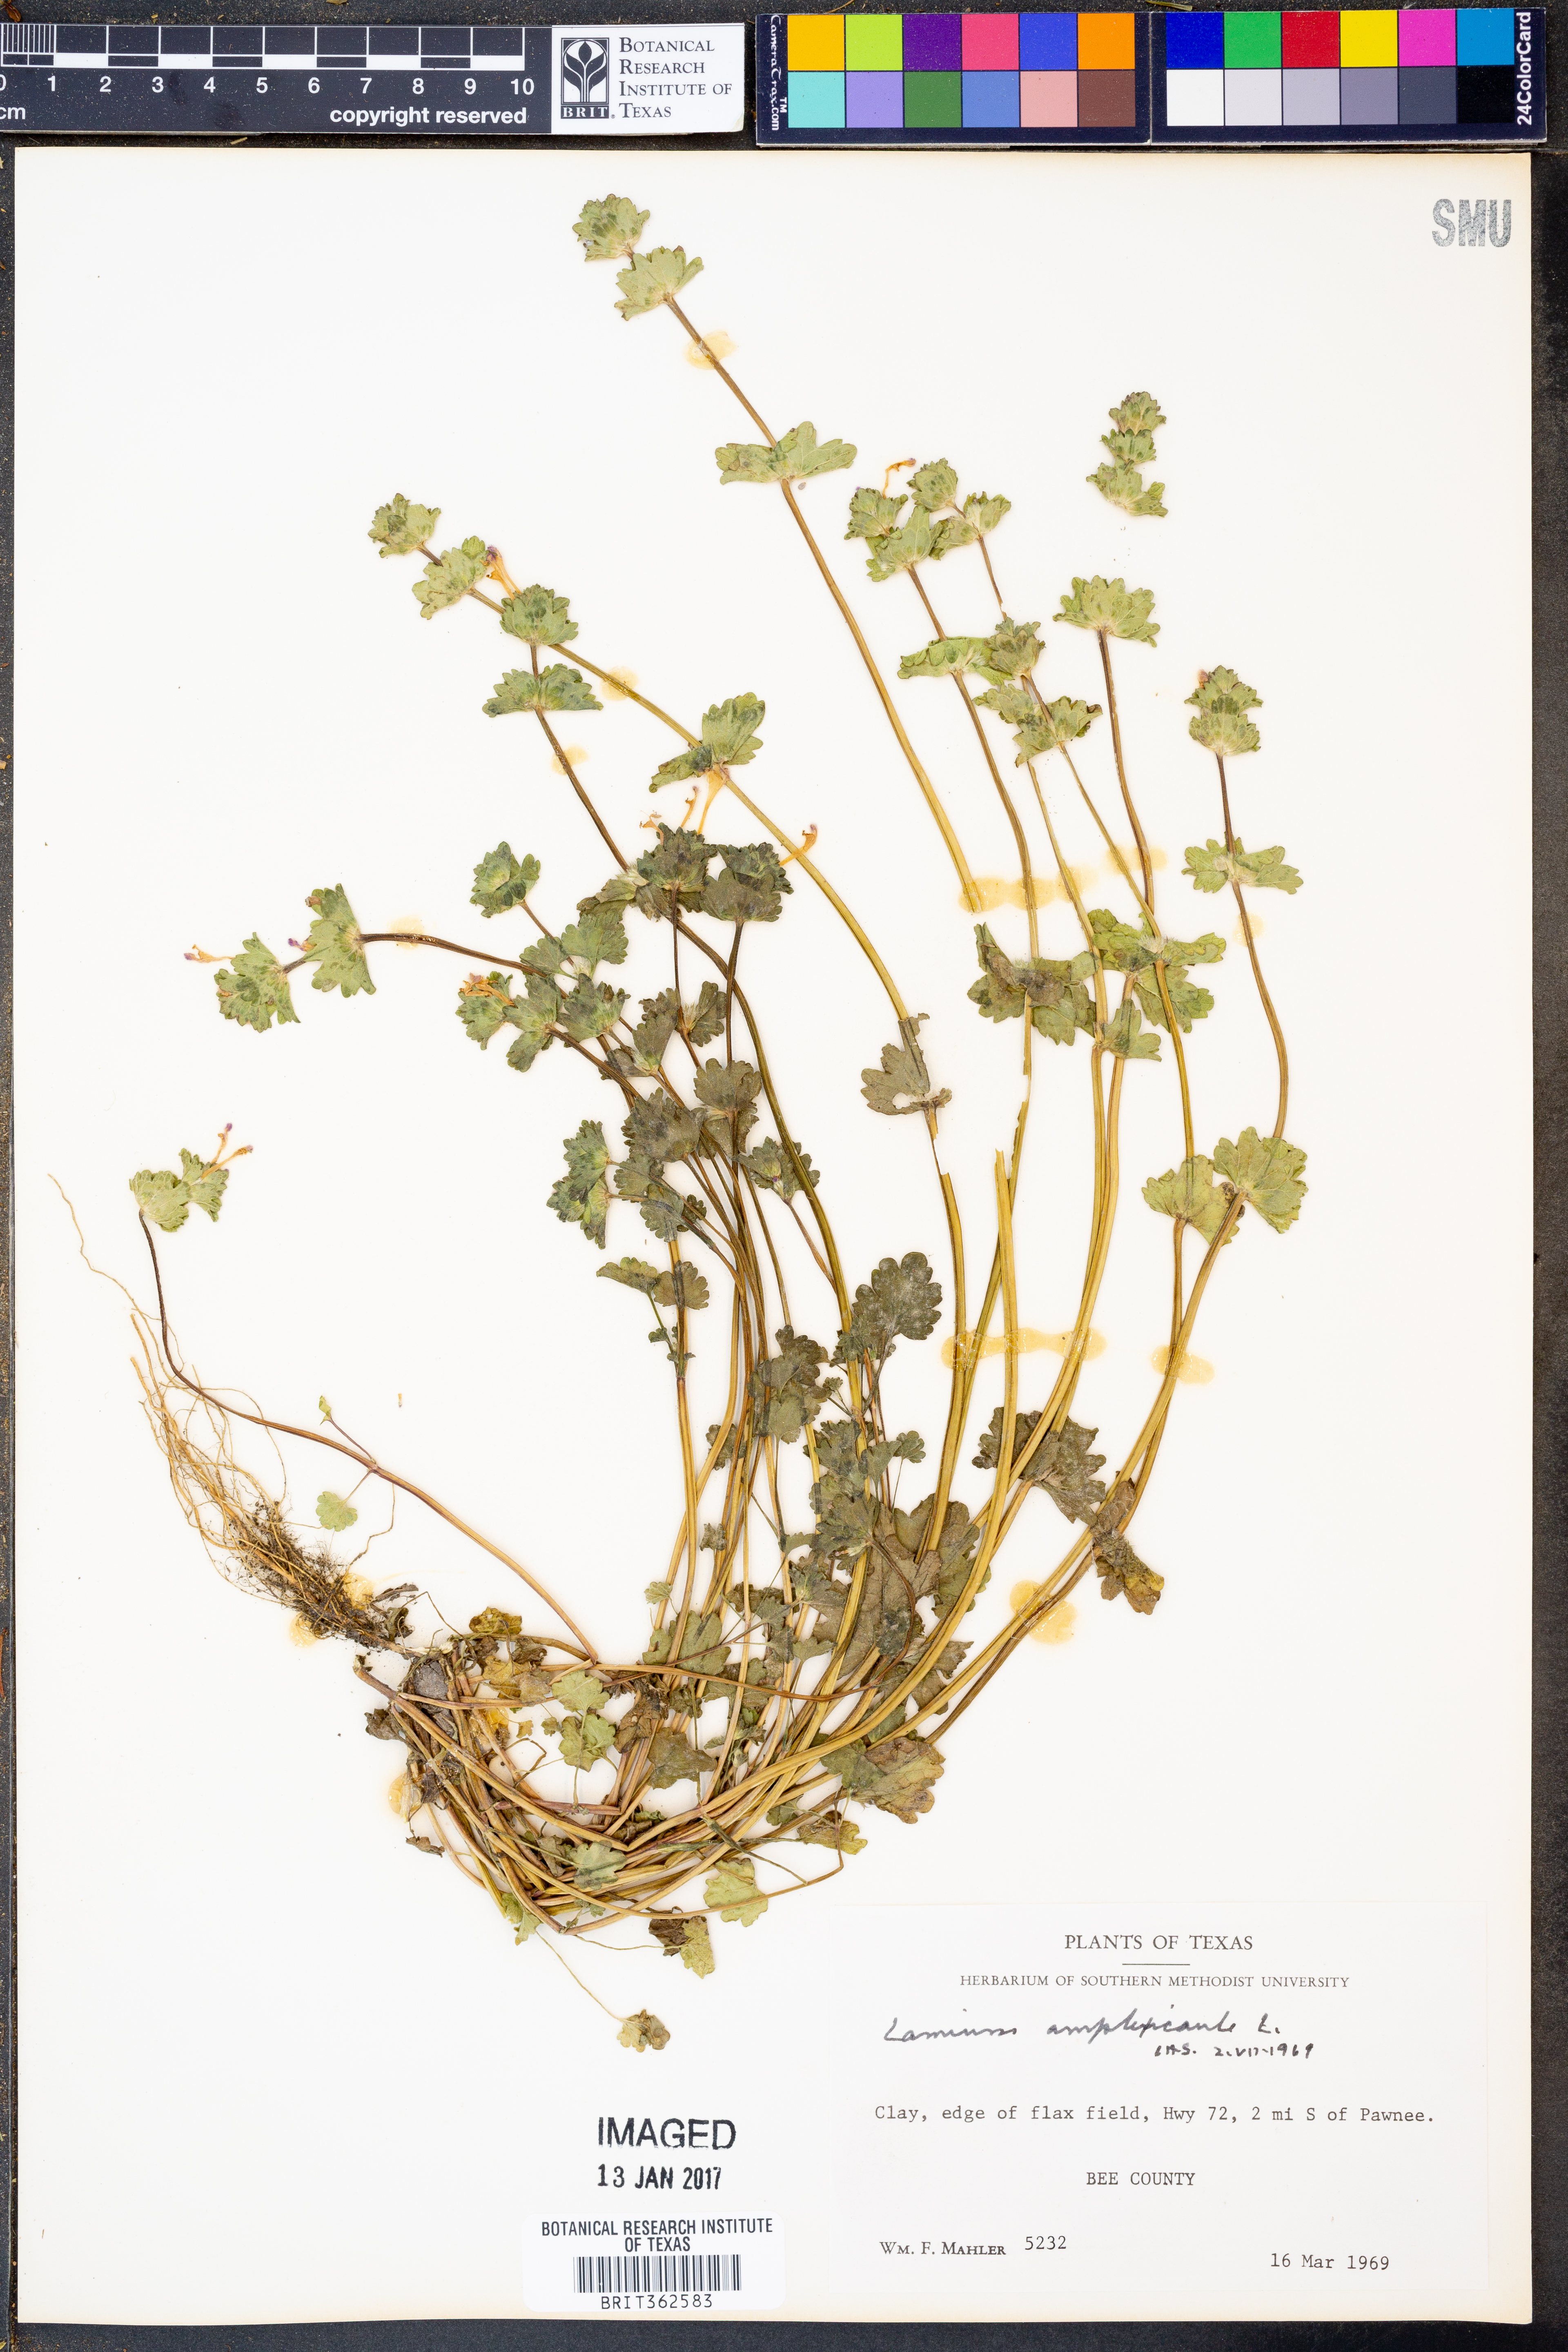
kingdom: Plantae
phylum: Tracheophyta
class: Magnoliopsida
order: Lamiales
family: Lamiaceae
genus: Lamium
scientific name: Lamium amplexicaule
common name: Henbit dead-nettle
